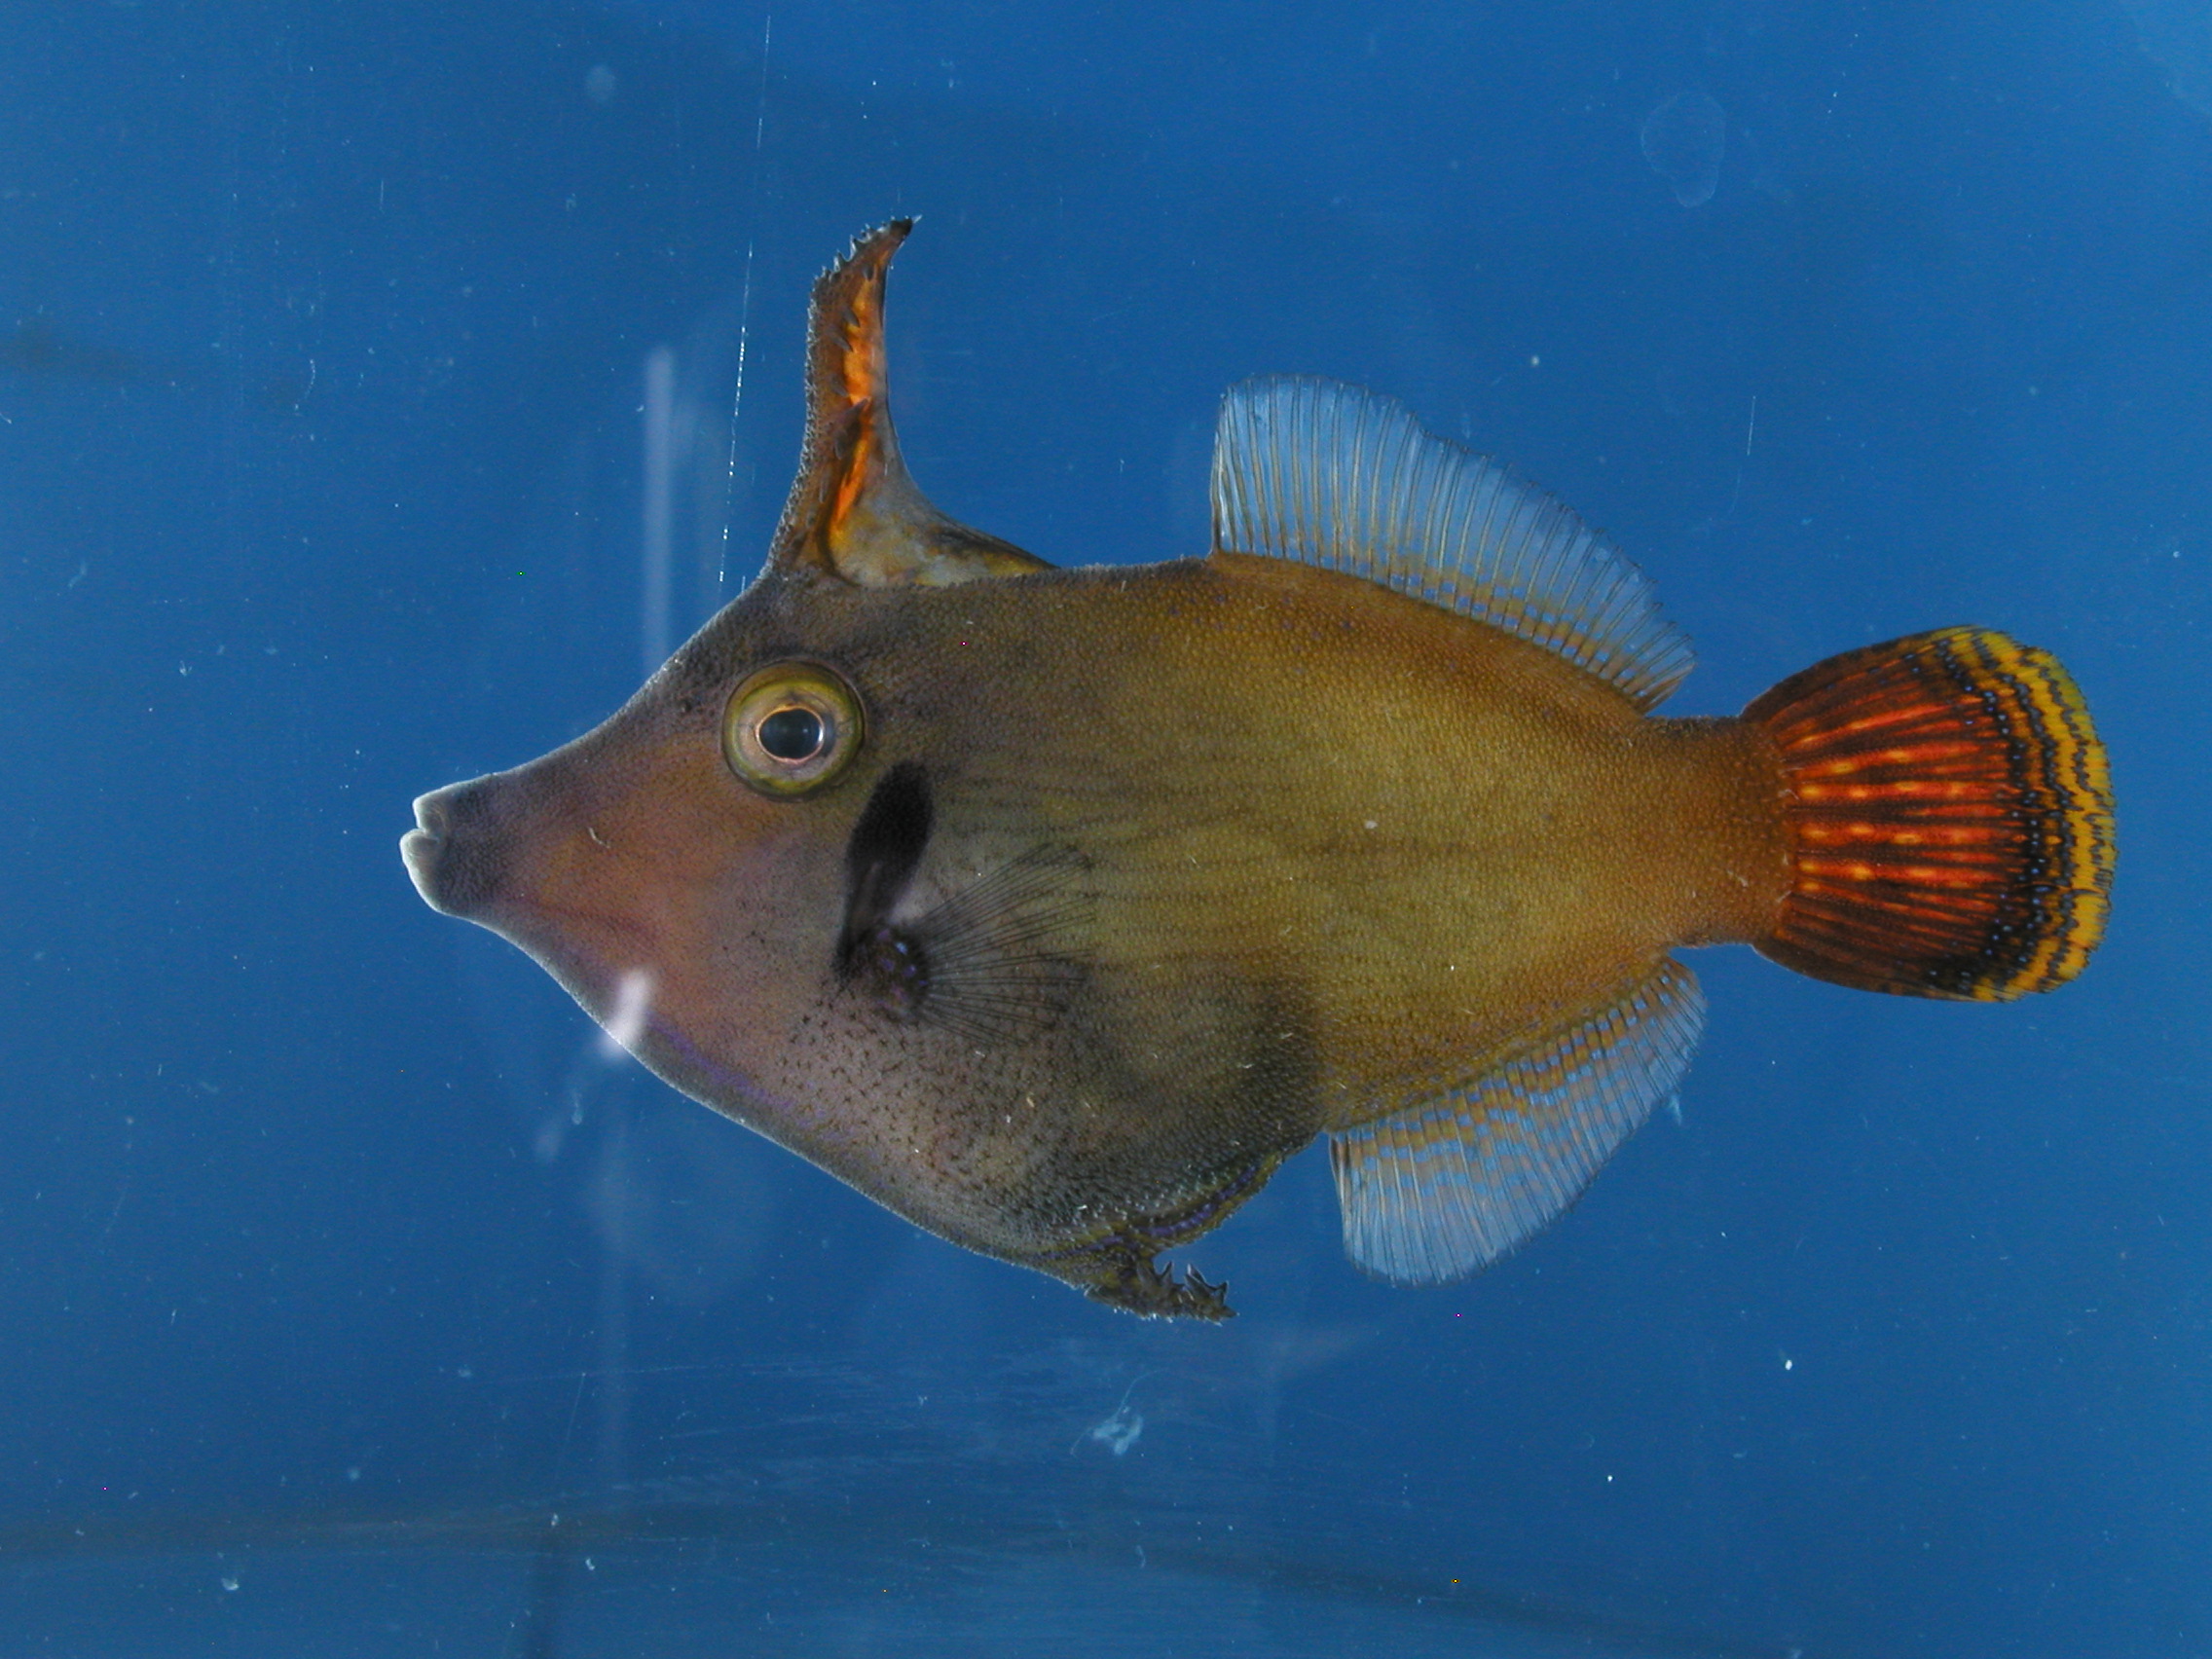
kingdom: Animalia
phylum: Chordata
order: Tetraodontiformes
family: Monacanthidae
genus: Pervagor
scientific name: Pervagor janthinosoma
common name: Blackbar filefish
